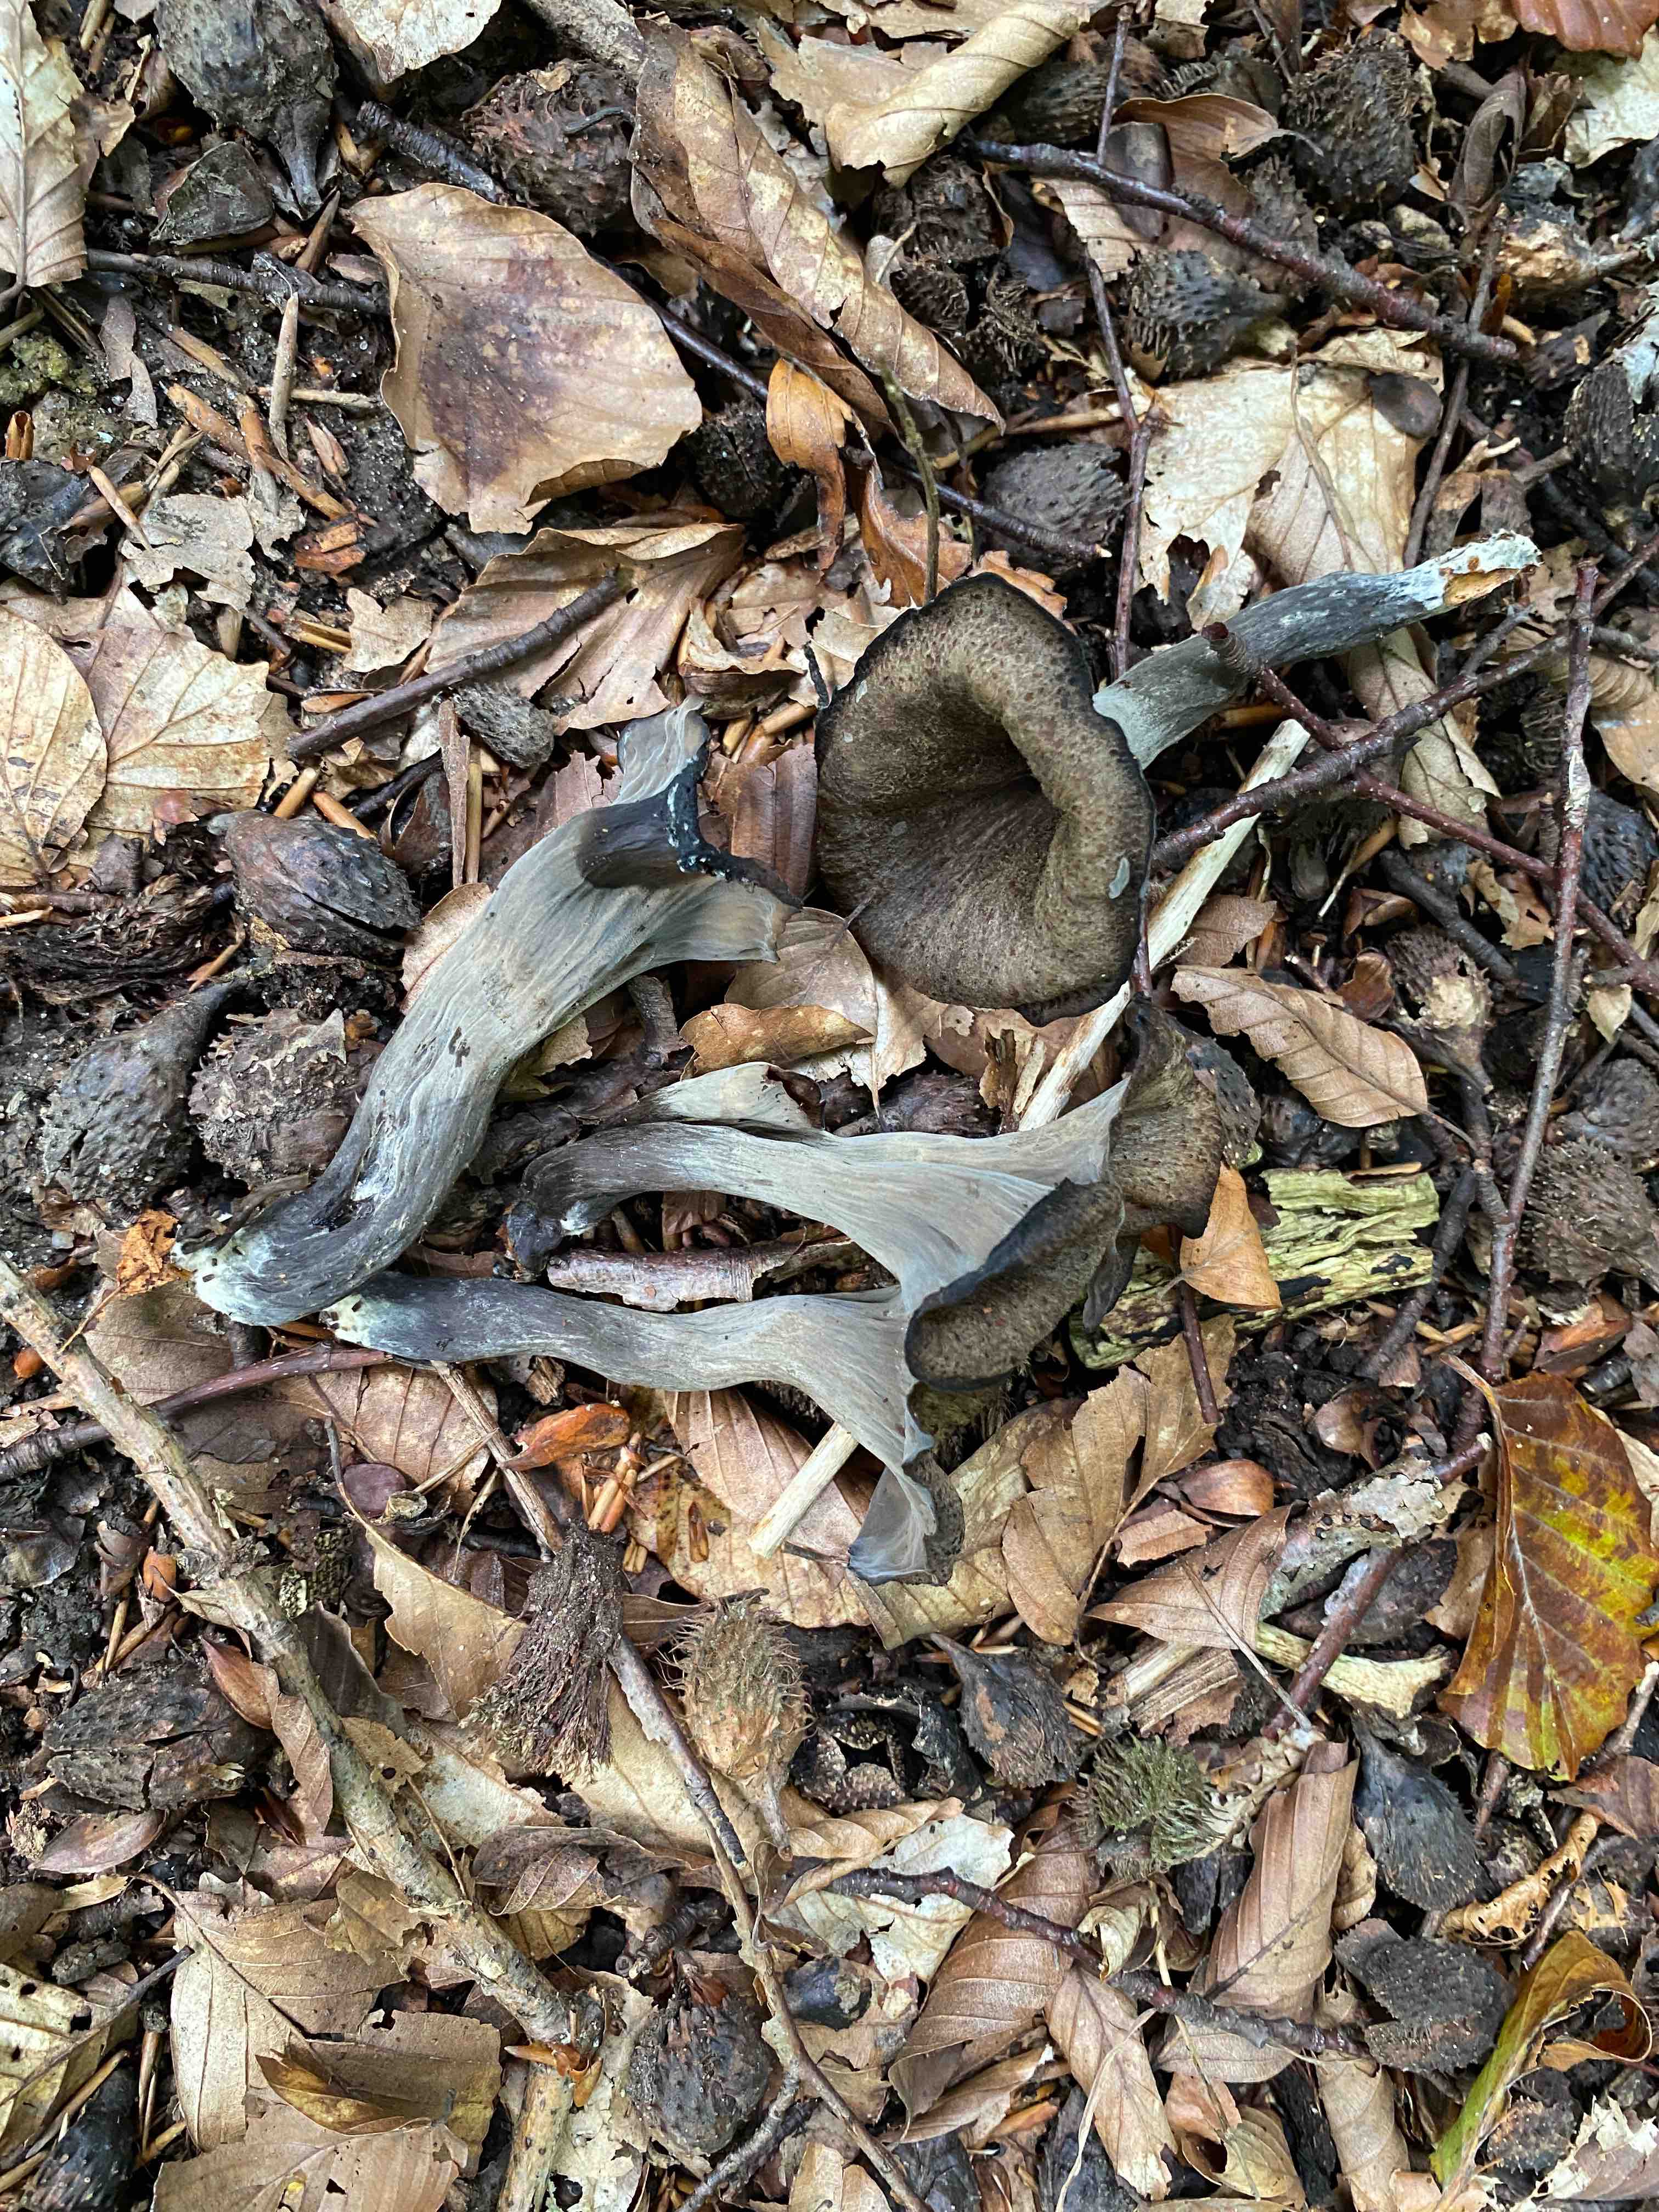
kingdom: Fungi
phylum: Basidiomycota
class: Agaricomycetes
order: Cantharellales
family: Hydnaceae
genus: Craterellus
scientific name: Craterellus cornucopioides
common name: trompetsvamp
